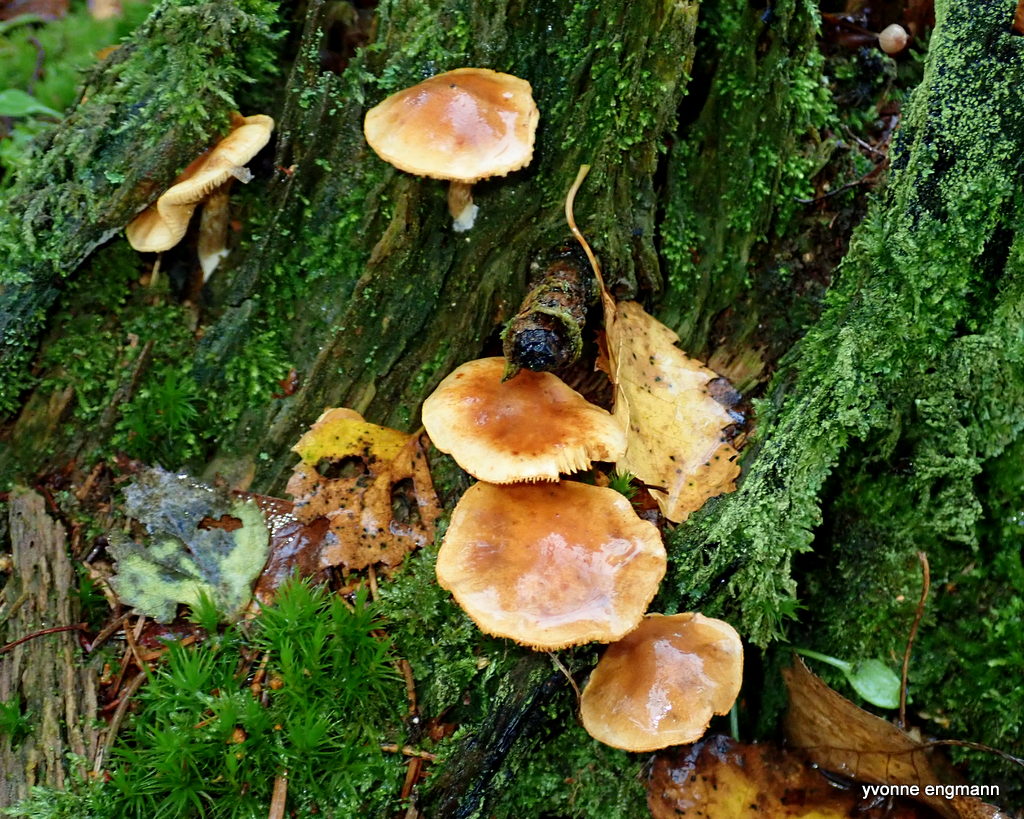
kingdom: Fungi
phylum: Basidiomycota
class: Agaricomycetes
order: Agaricales
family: Hymenogastraceae
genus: Gymnopilus
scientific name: Gymnopilus penetrans
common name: plettet flammehat
